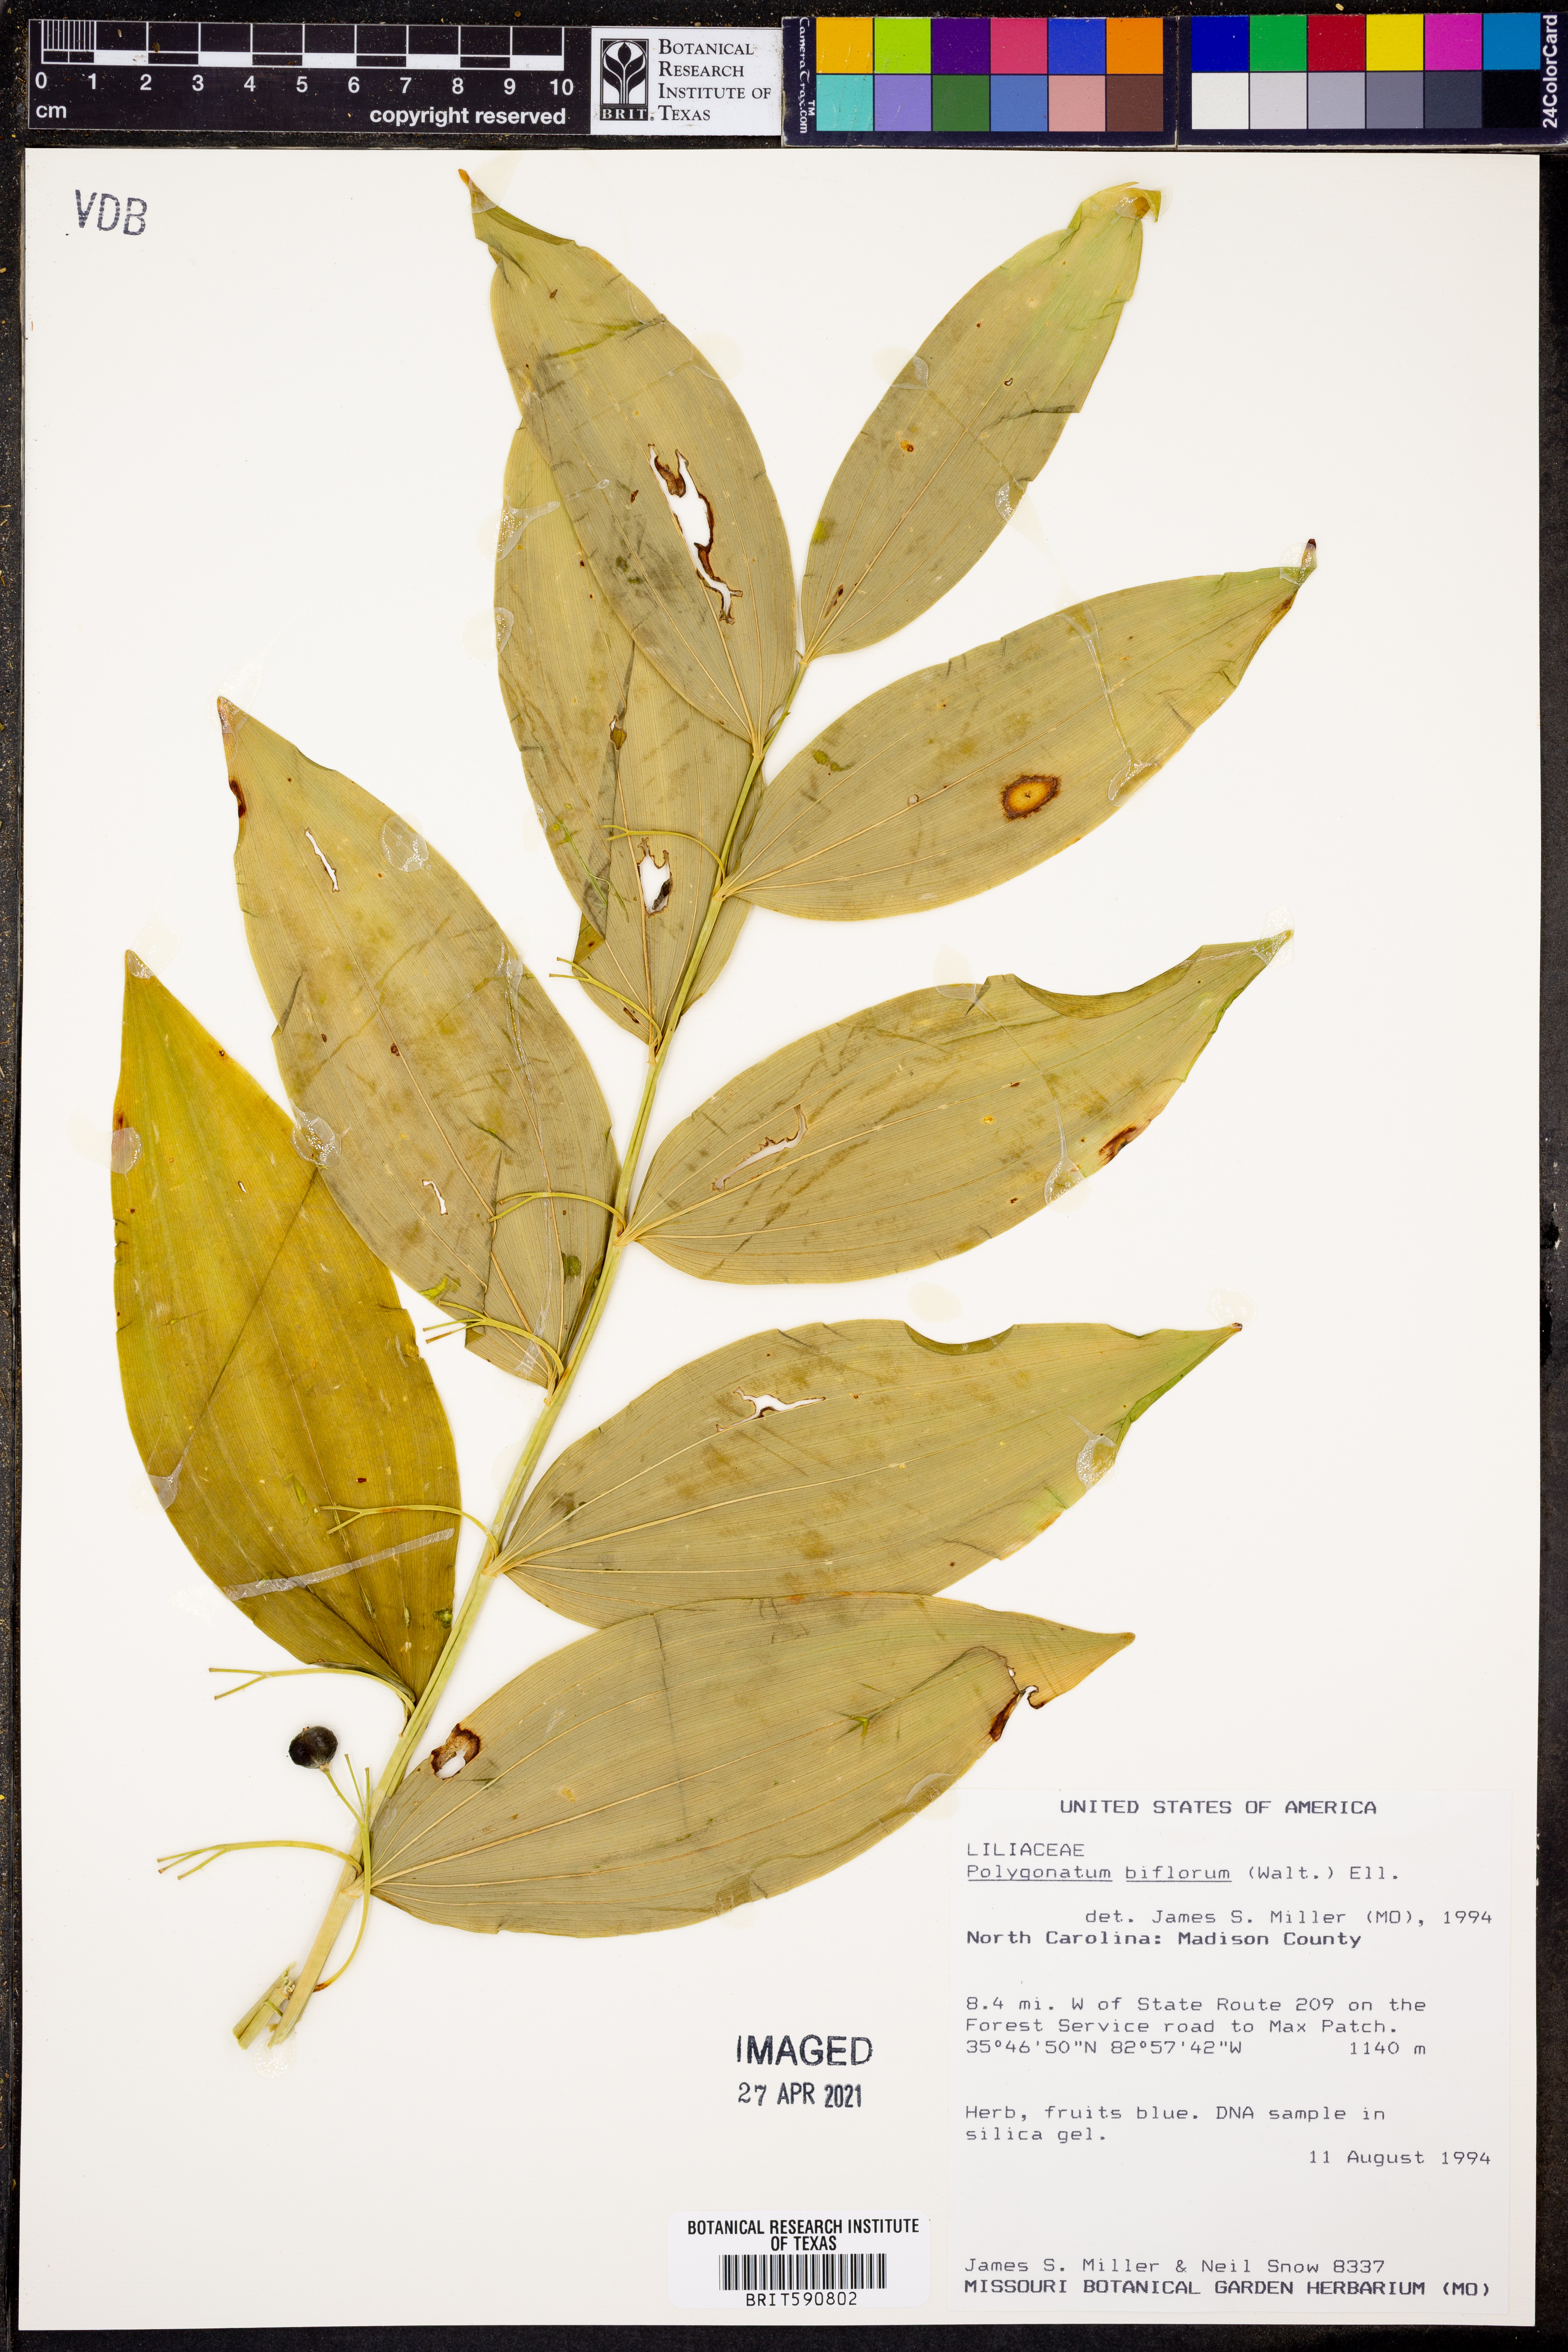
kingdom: Plantae
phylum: Tracheophyta
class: Liliopsida
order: Asparagales
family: Asparagaceae
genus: Polygonatum
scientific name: Polygonatum biflorum
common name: American solomon's-seal
